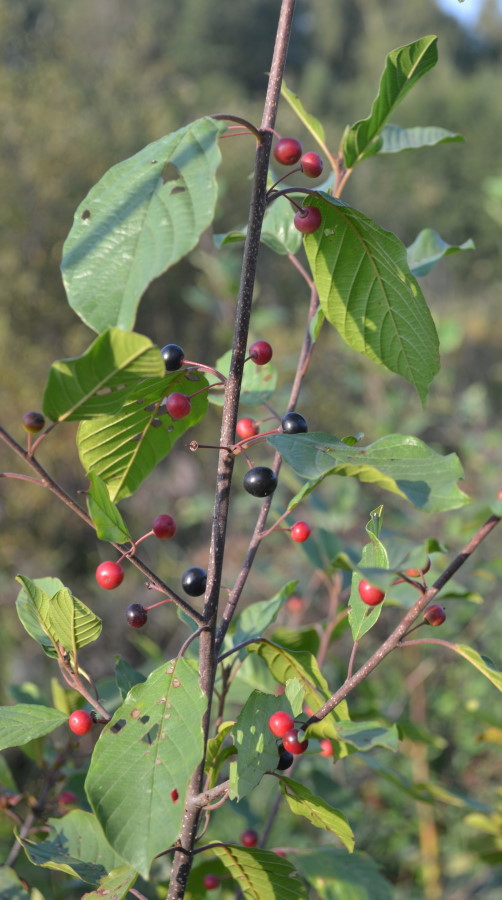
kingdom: Plantae
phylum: Tracheophyta
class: Magnoliopsida
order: Rosales
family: Rhamnaceae
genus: Frangula
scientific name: Frangula alnus
